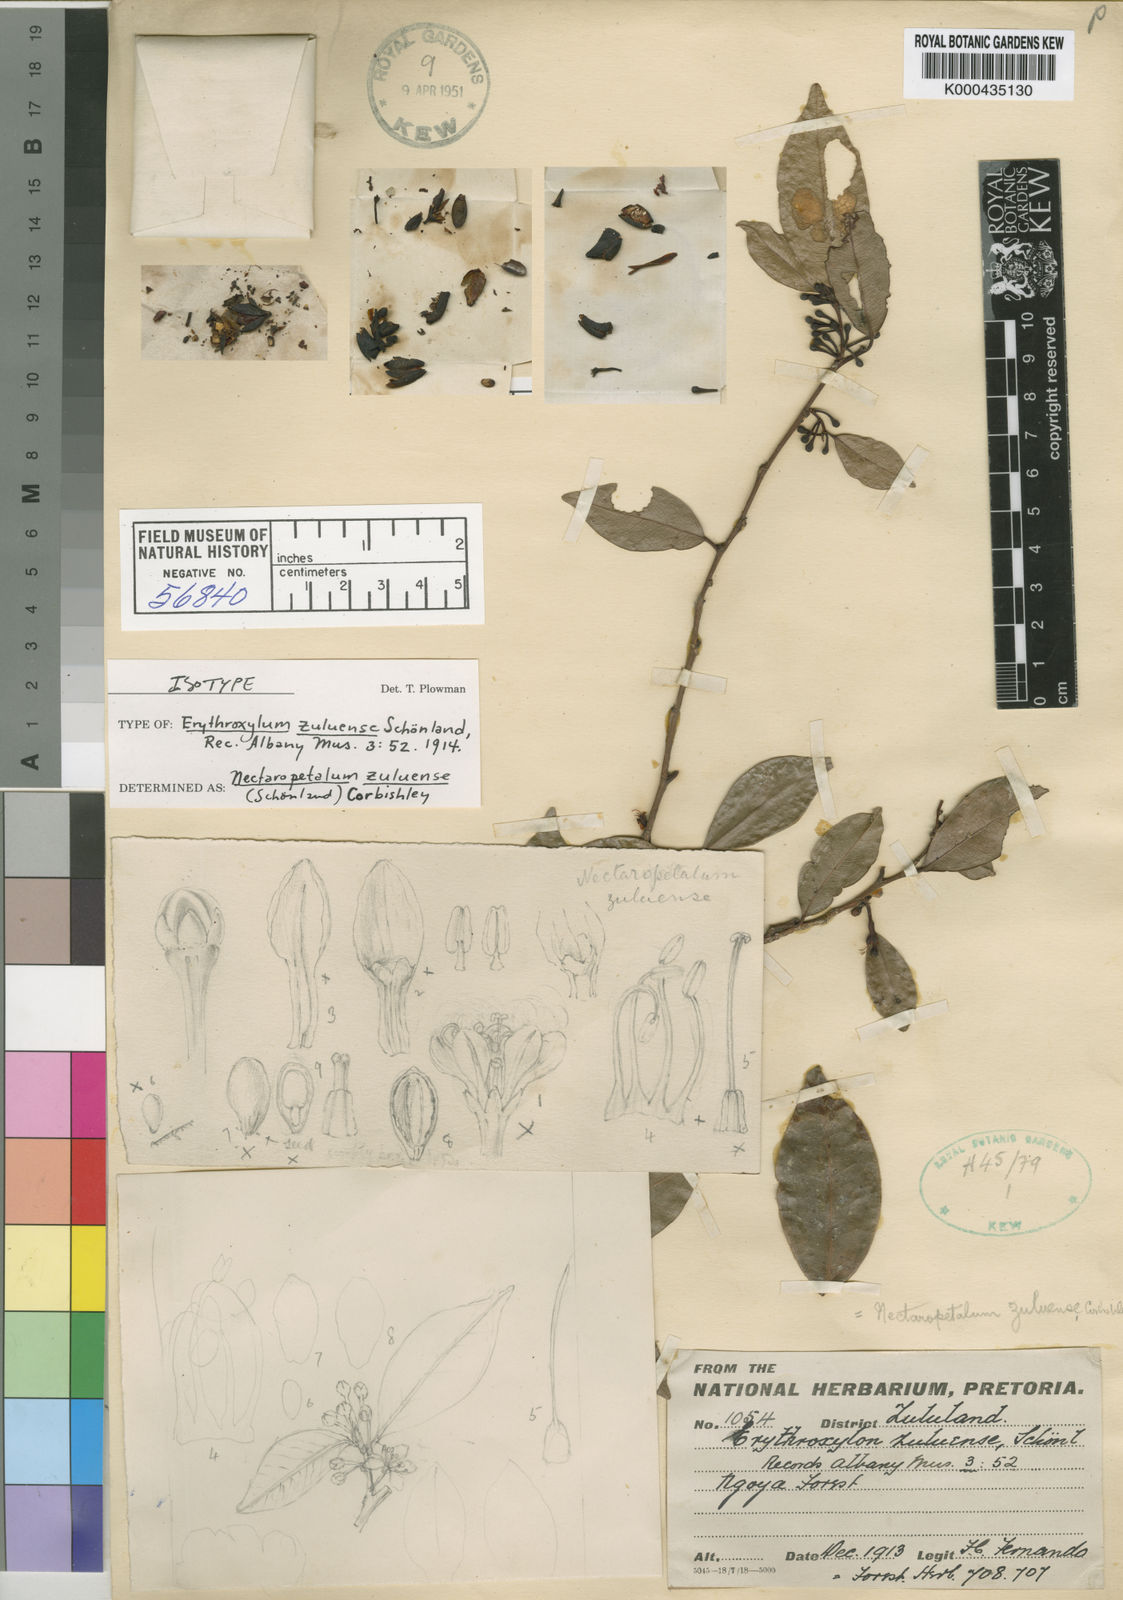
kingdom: Plantae
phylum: Tracheophyta
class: Magnoliopsida
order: Malpighiales
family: Erythroxylaceae
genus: Nectaropetalum
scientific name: Nectaropetalum
